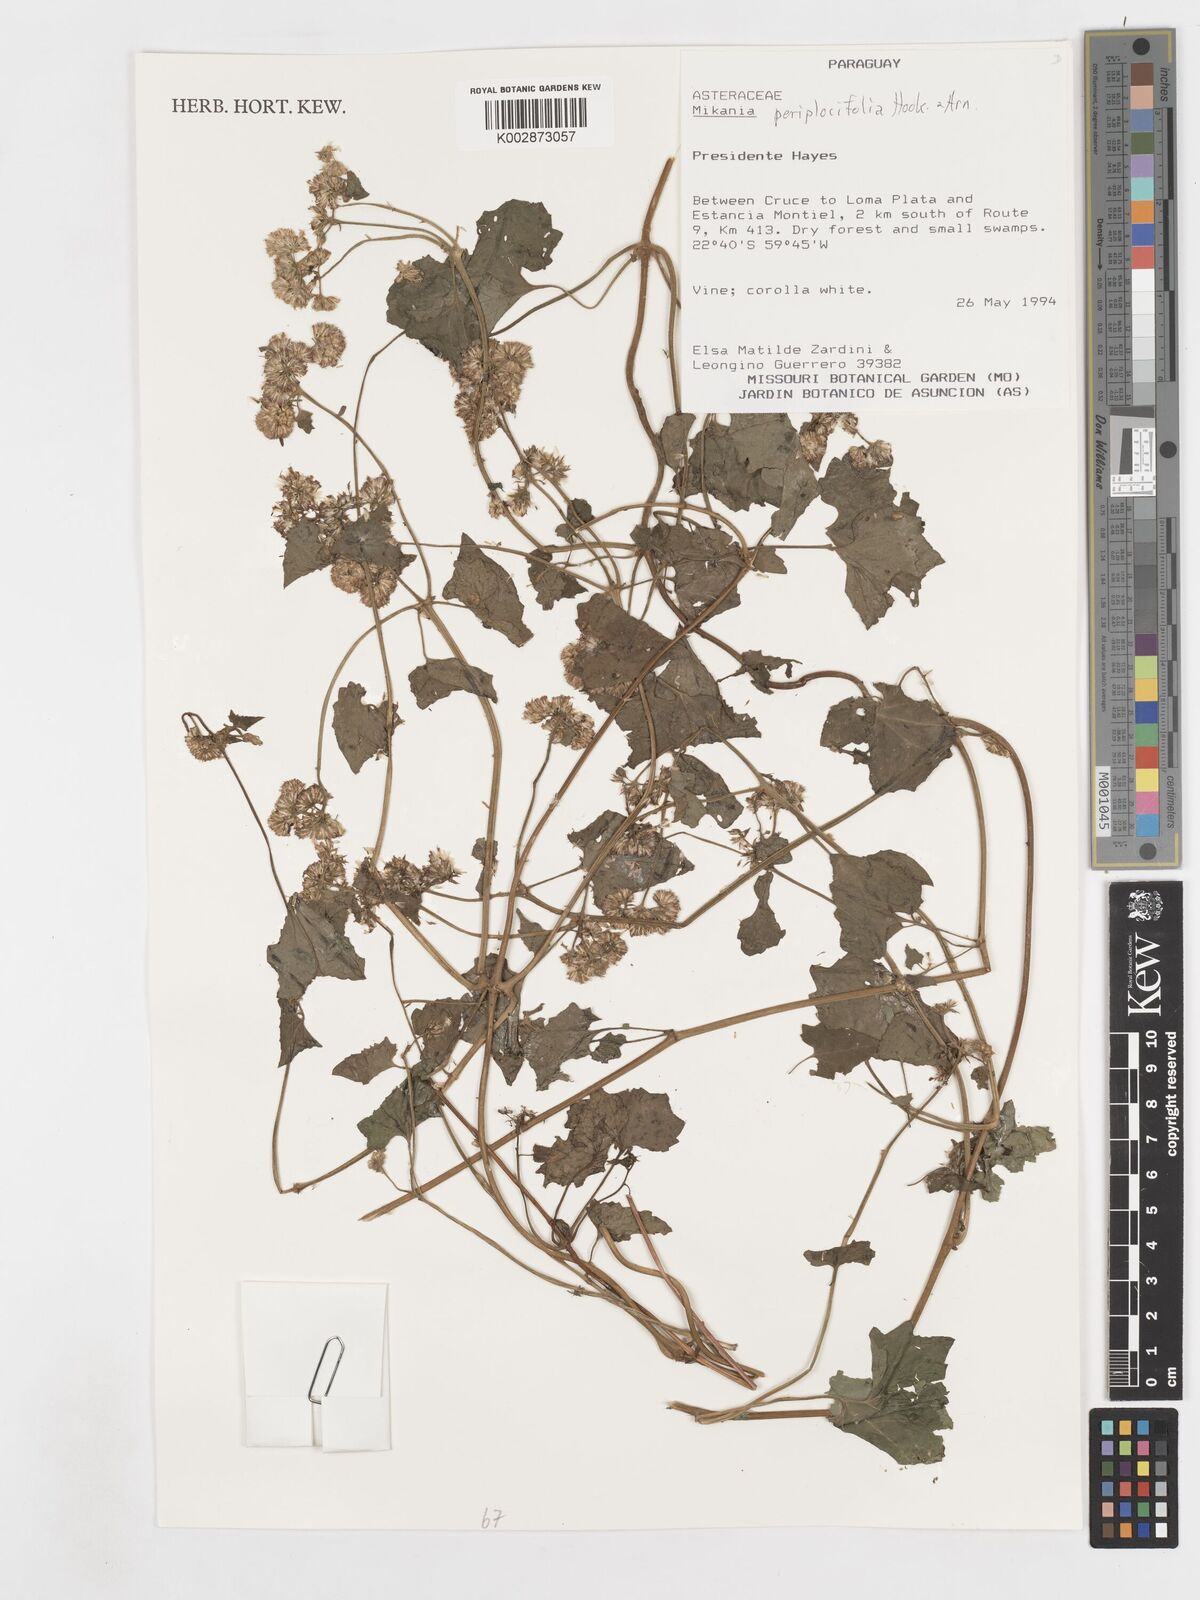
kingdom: Plantae
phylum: Tracheophyta
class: Magnoliopsida
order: Asterales
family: Asteraceae
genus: Mikania
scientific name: Mikania periplocifolia
